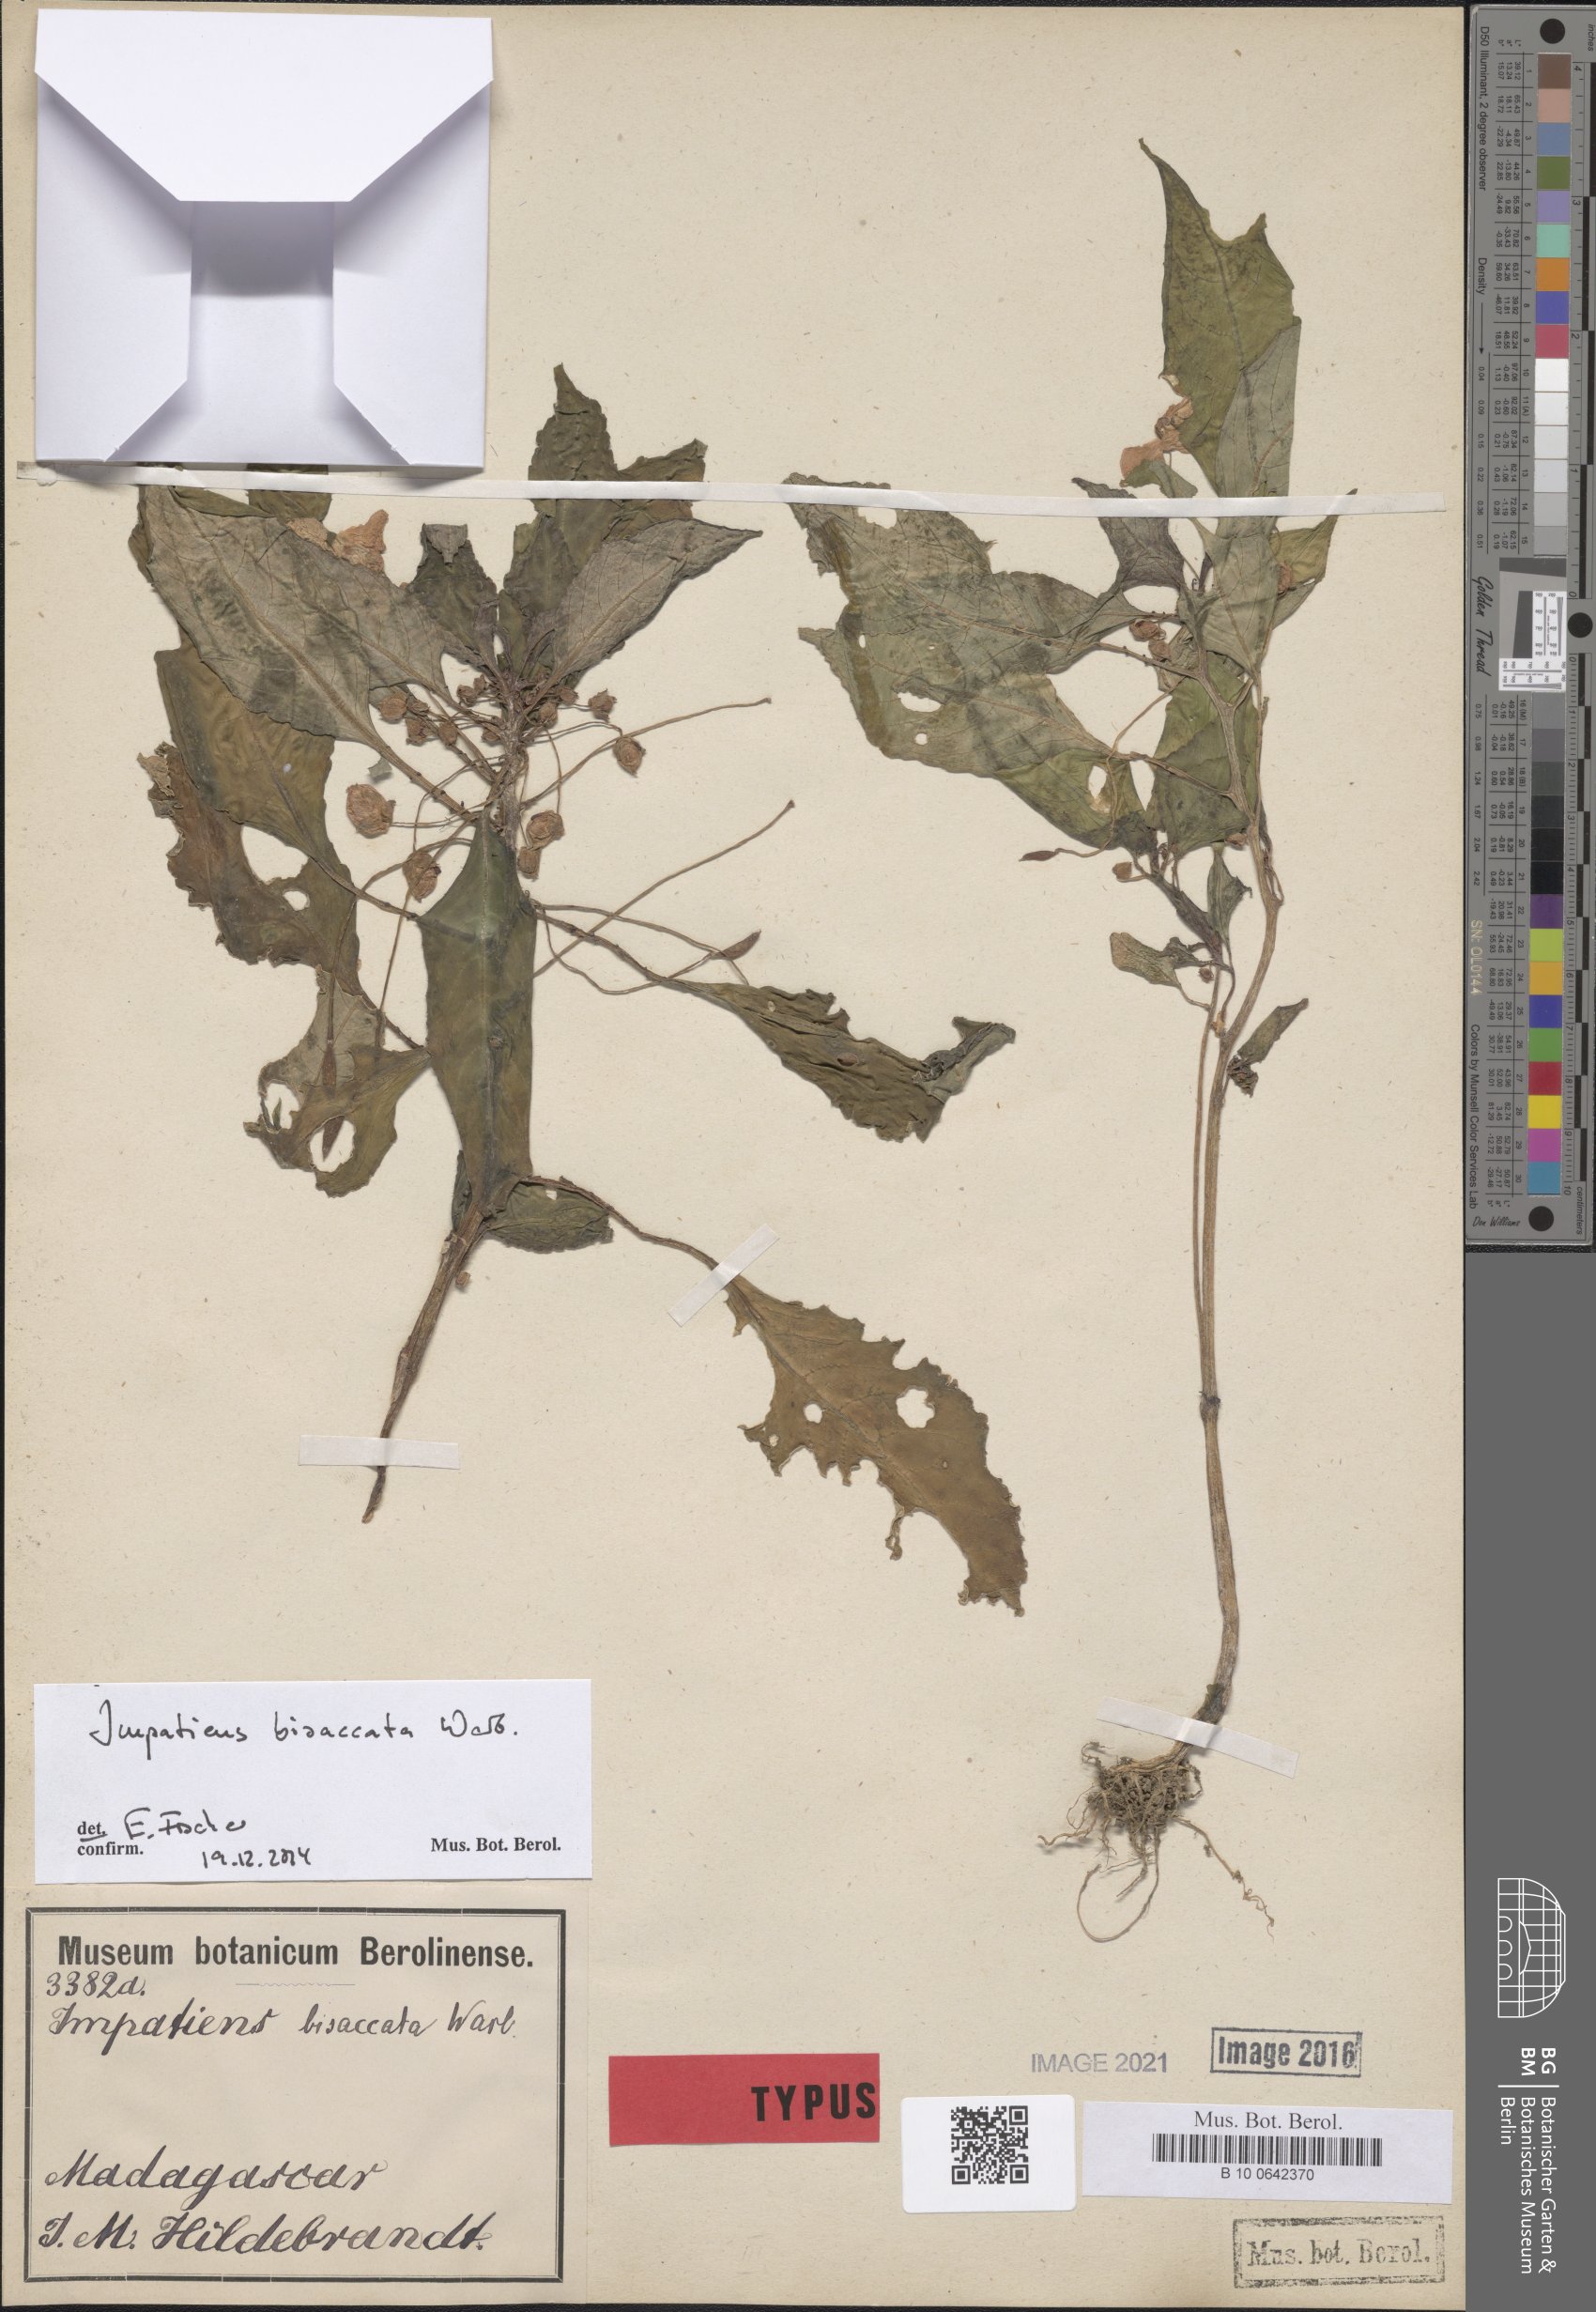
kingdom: Plantae
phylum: Tracheophyta
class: Magnoliopsida
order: Ericales
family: Balsaminaceae
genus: Impatiens
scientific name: Impatiens bisaccata
